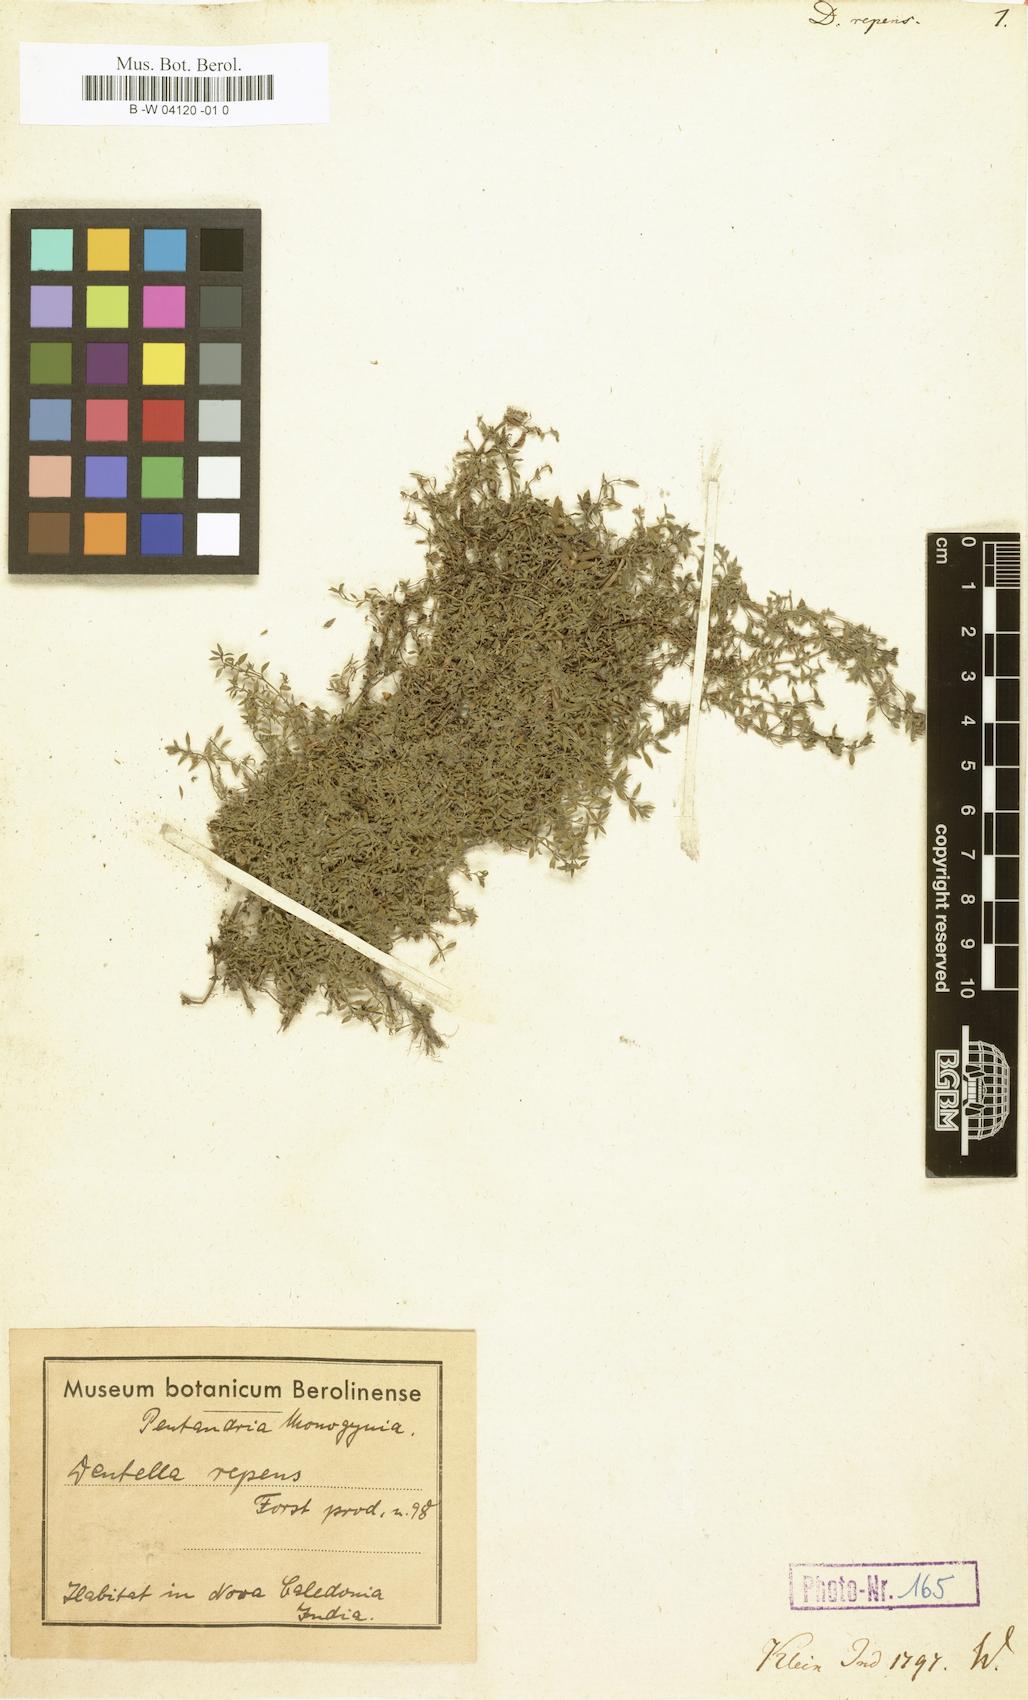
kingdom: Plantae
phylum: Tracheophyta
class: Magnoliopsida
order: Gentianales
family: Rubiaceae
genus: Dentella
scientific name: Dentella repens
